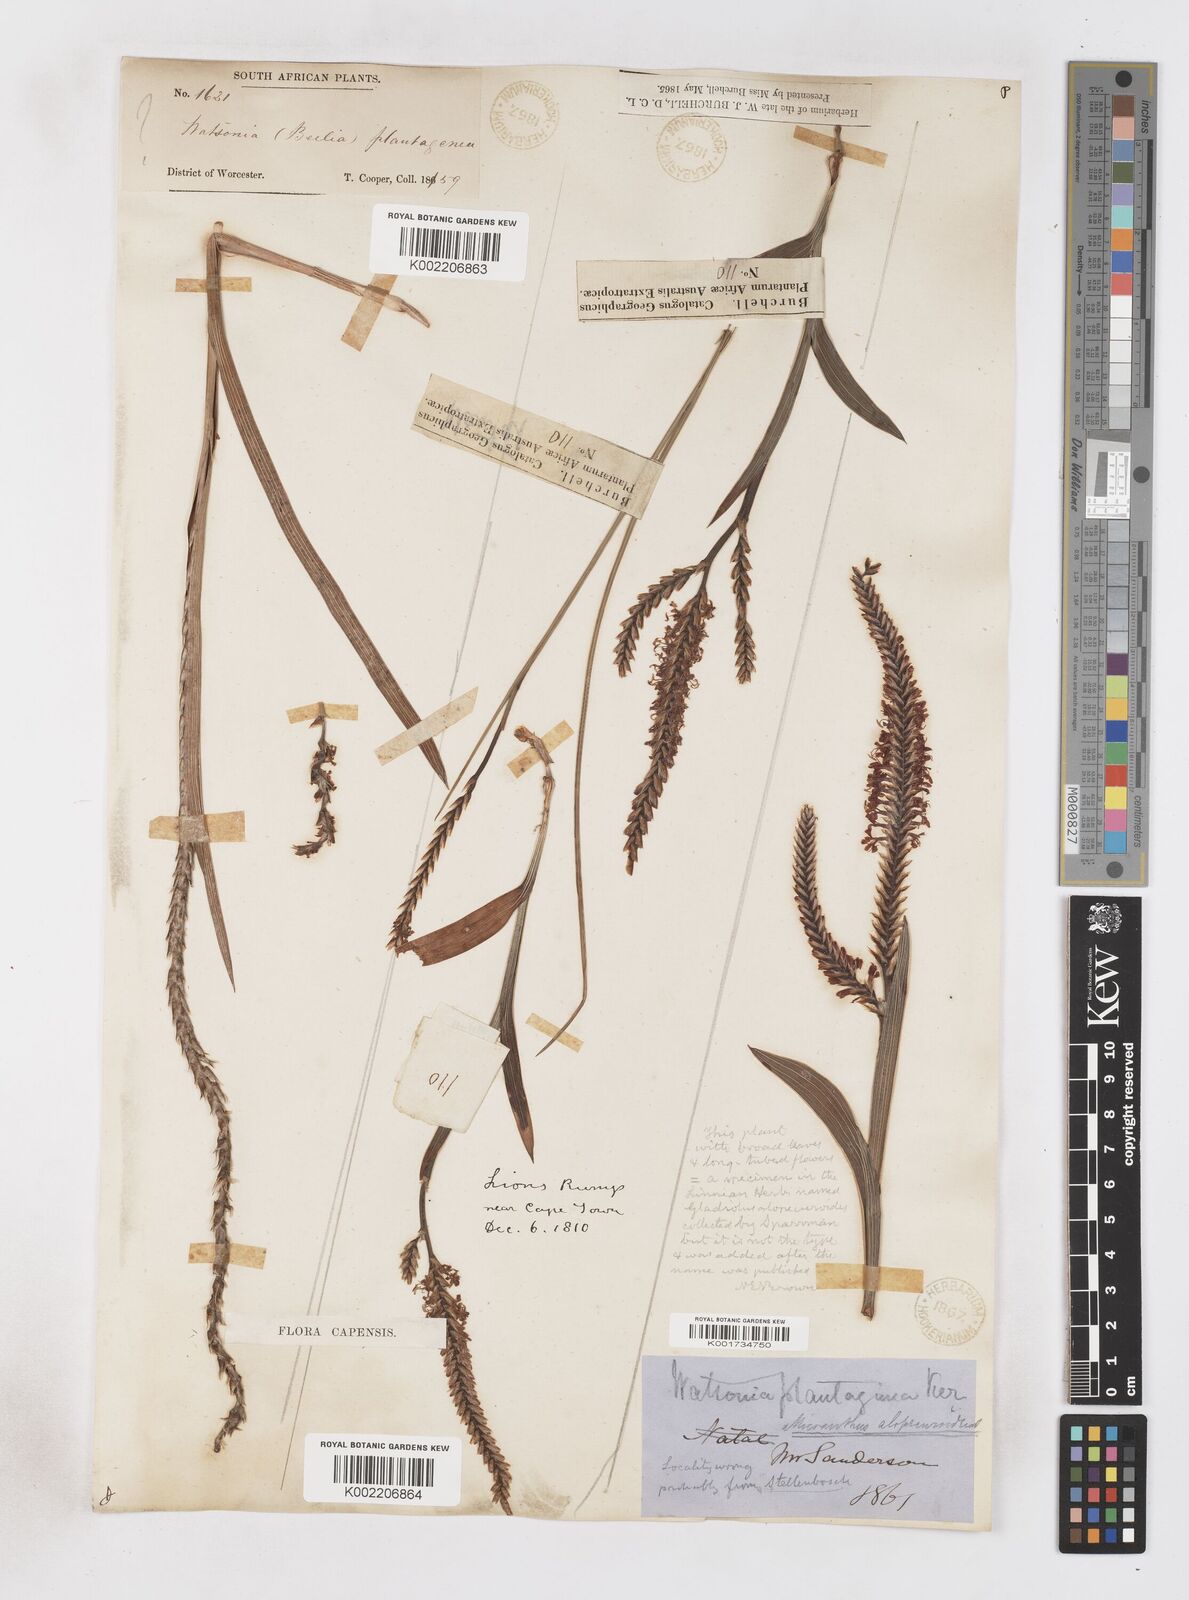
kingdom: Plantae
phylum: Tracheophyta
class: Liliopsida
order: Asparagales
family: Iridaceae
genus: Micranthus
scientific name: Micranthus plantagineus
